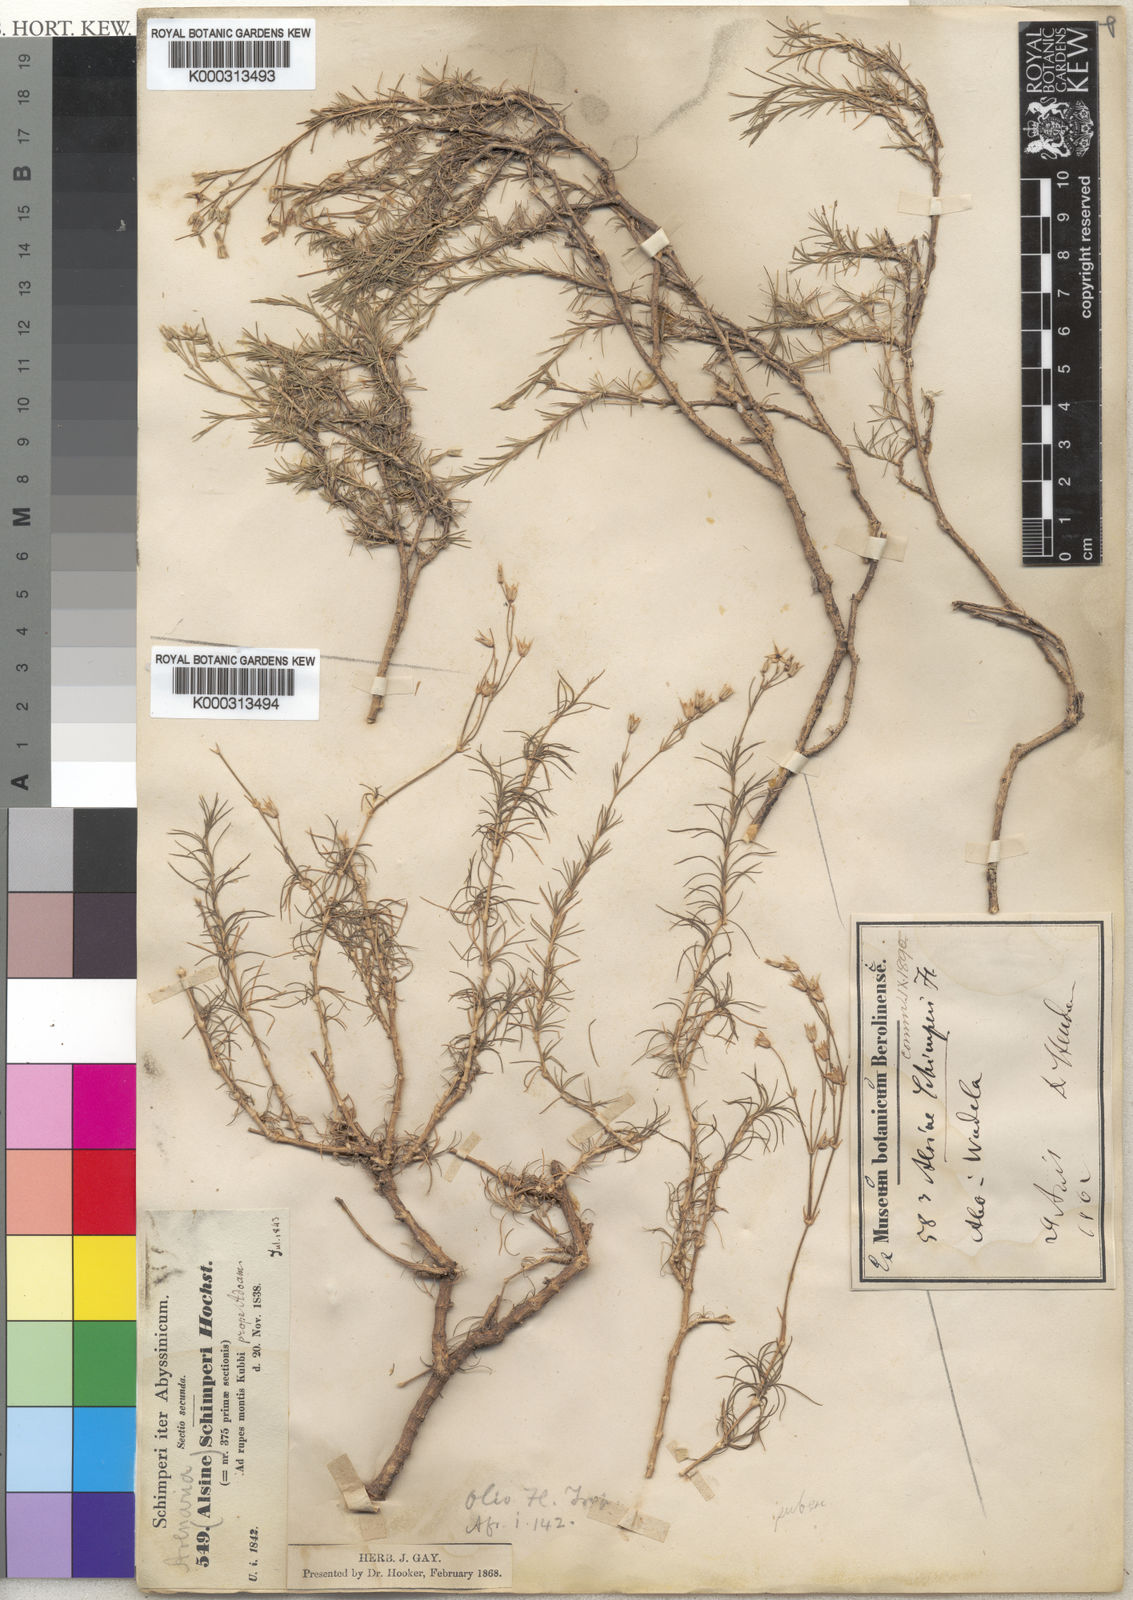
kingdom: Plantae
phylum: Tracheophyta
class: Magnoliopsida
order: Caryophyllales
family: Caryophyllaceae
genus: Alsine
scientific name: Alsine
